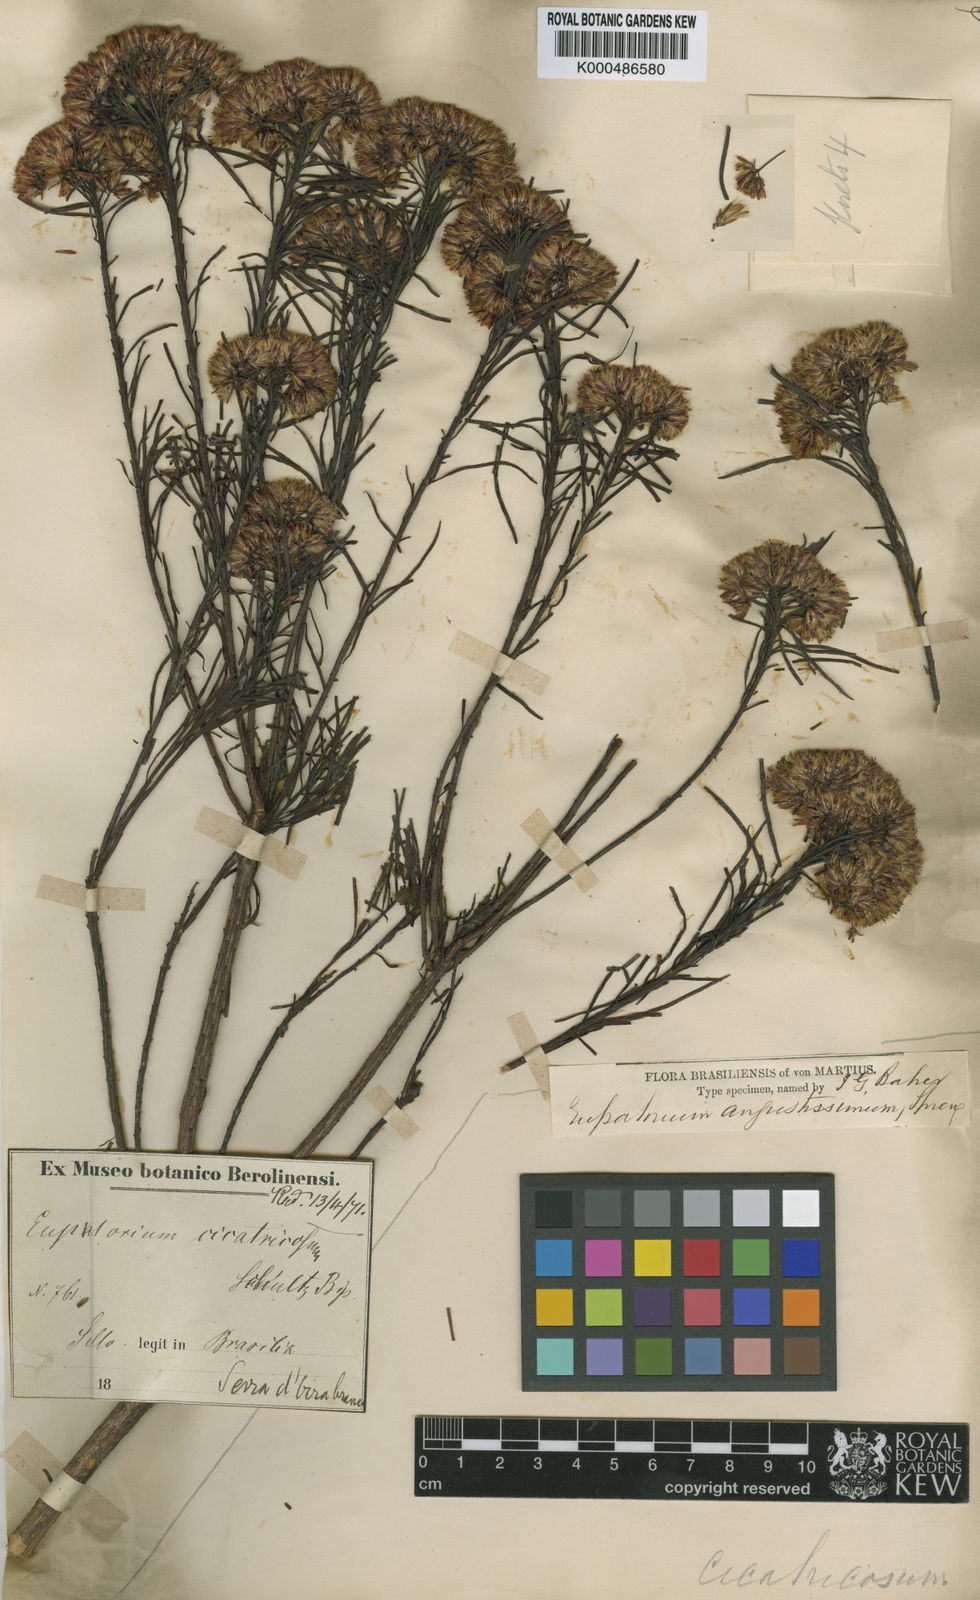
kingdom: Plantae
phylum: Tracheophyta
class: Magnoliopsida
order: Asterales
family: Asteraceae
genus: Pseudobrickellia
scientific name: Pseudobrickellia angustissima
